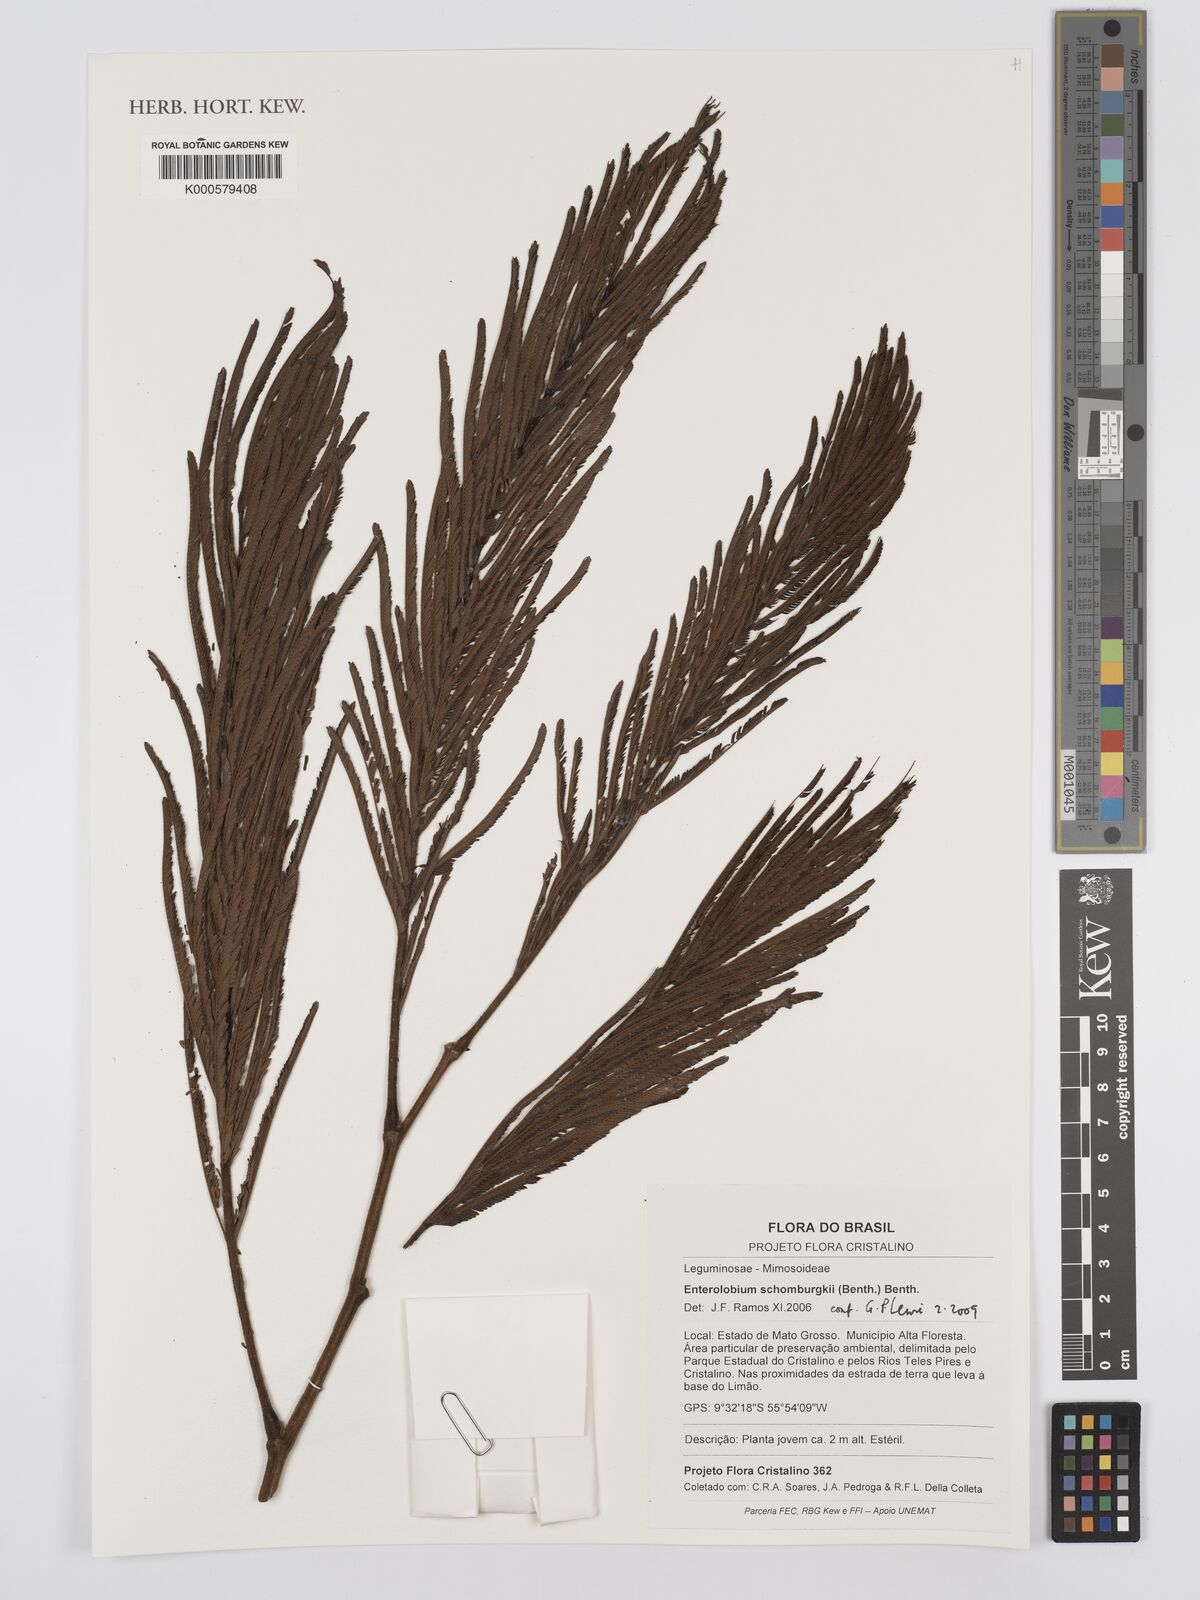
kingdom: Plantae
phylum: Tracheophyta
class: Magnoliopsida
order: Fabales
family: Fabaceae
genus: Enterolobium
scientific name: Enterolobium schomburgkii
